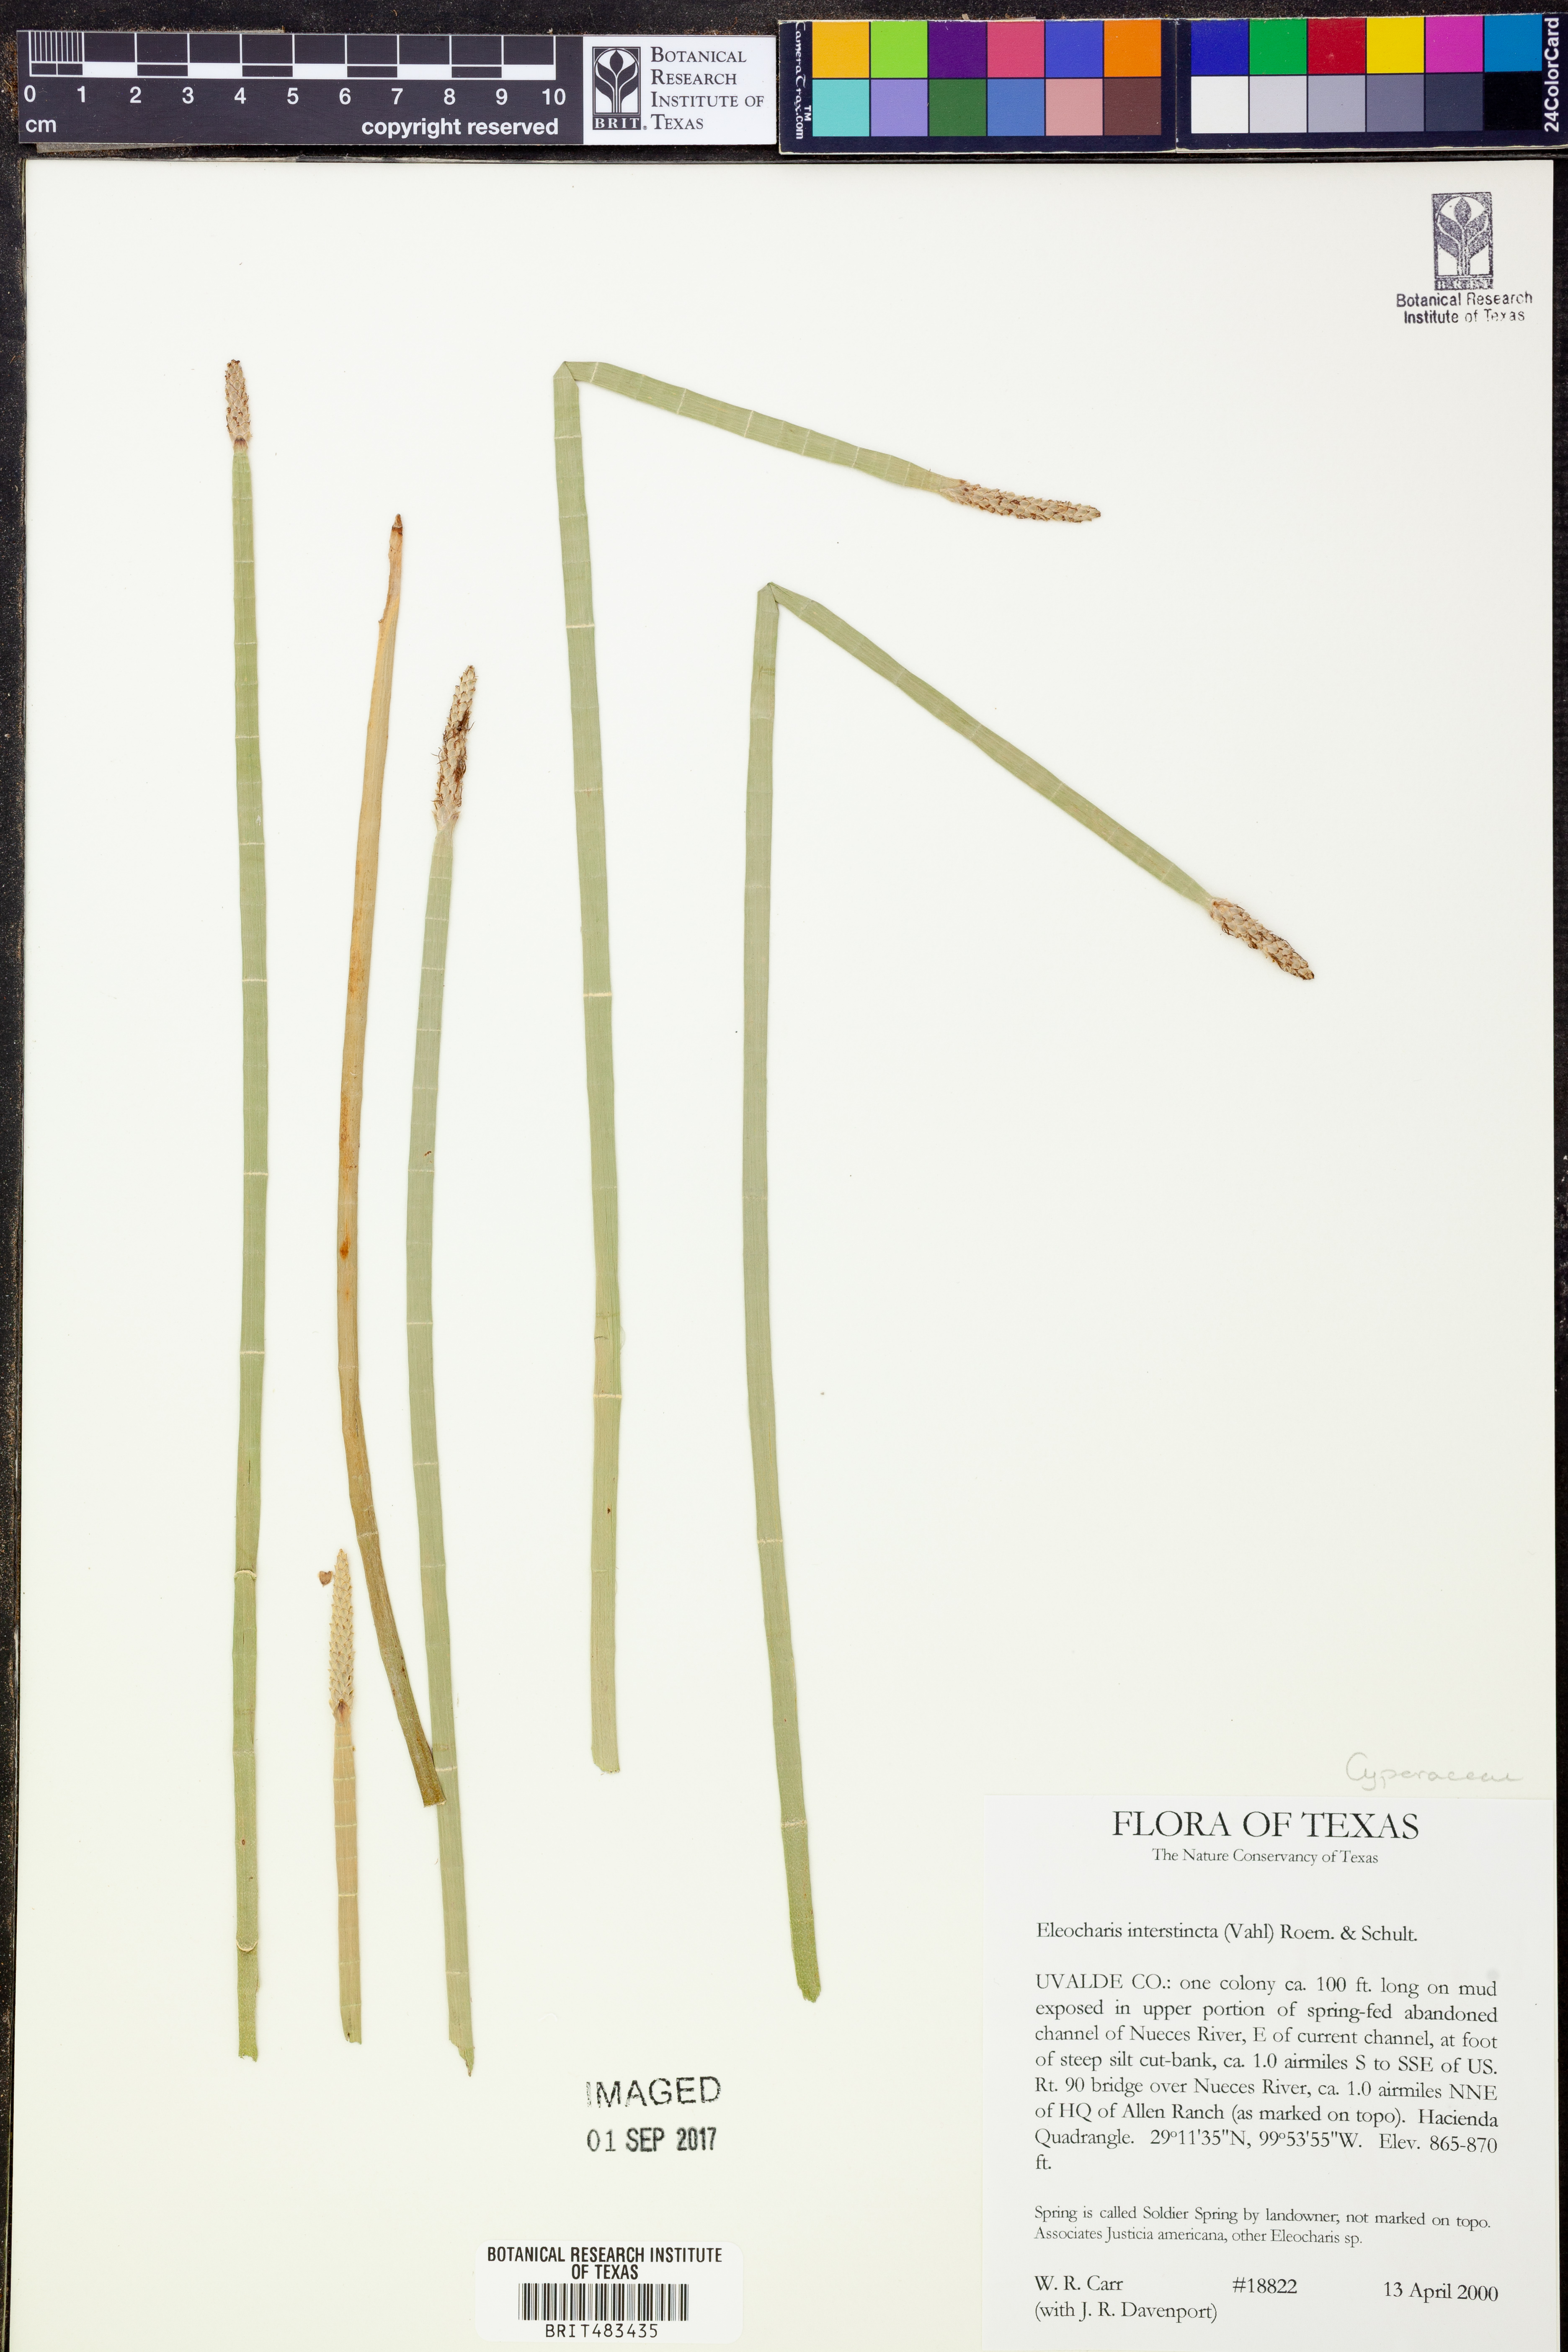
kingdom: Plantae
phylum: Tracheophyta
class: Liliopsida
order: Poales
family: Cyperaceae
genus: Eleocharis
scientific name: Eleocharis interstincta
